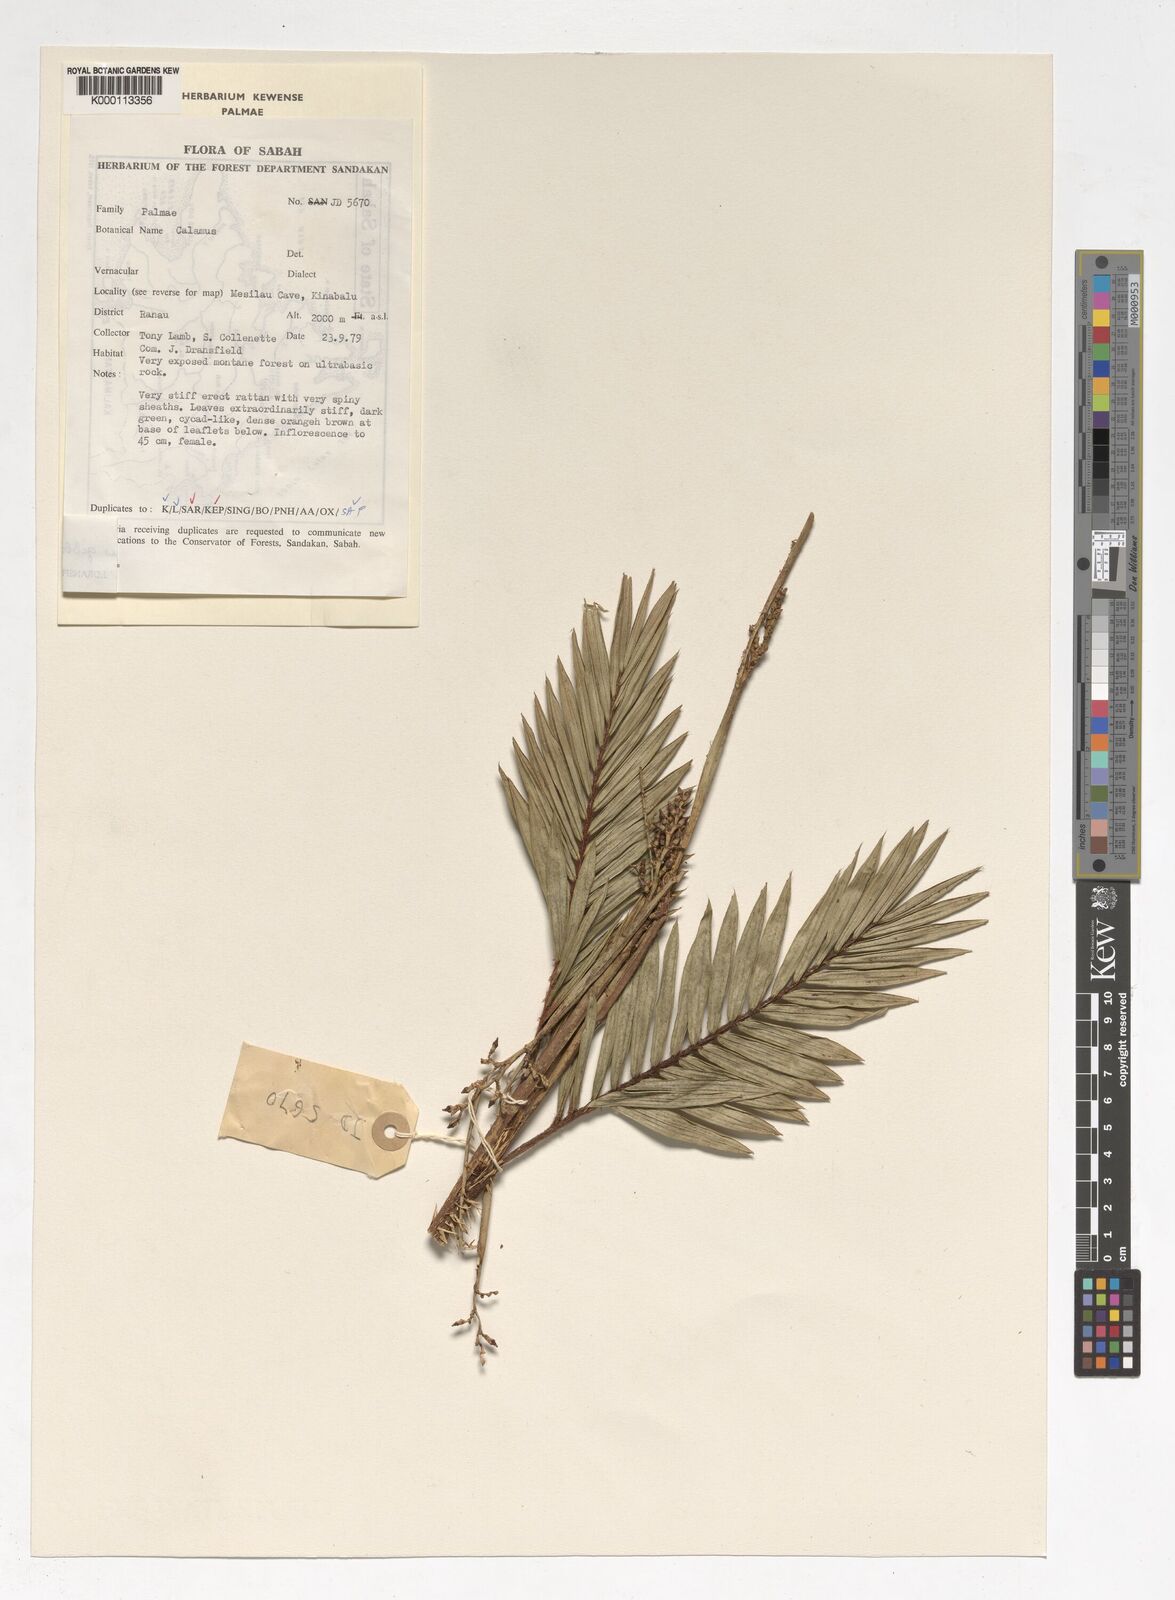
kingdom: Plantae
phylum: Tracheophyta
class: Liliopsida
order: Arecales
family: Arecaceae
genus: Calamus
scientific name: Calamus gibbsianus
